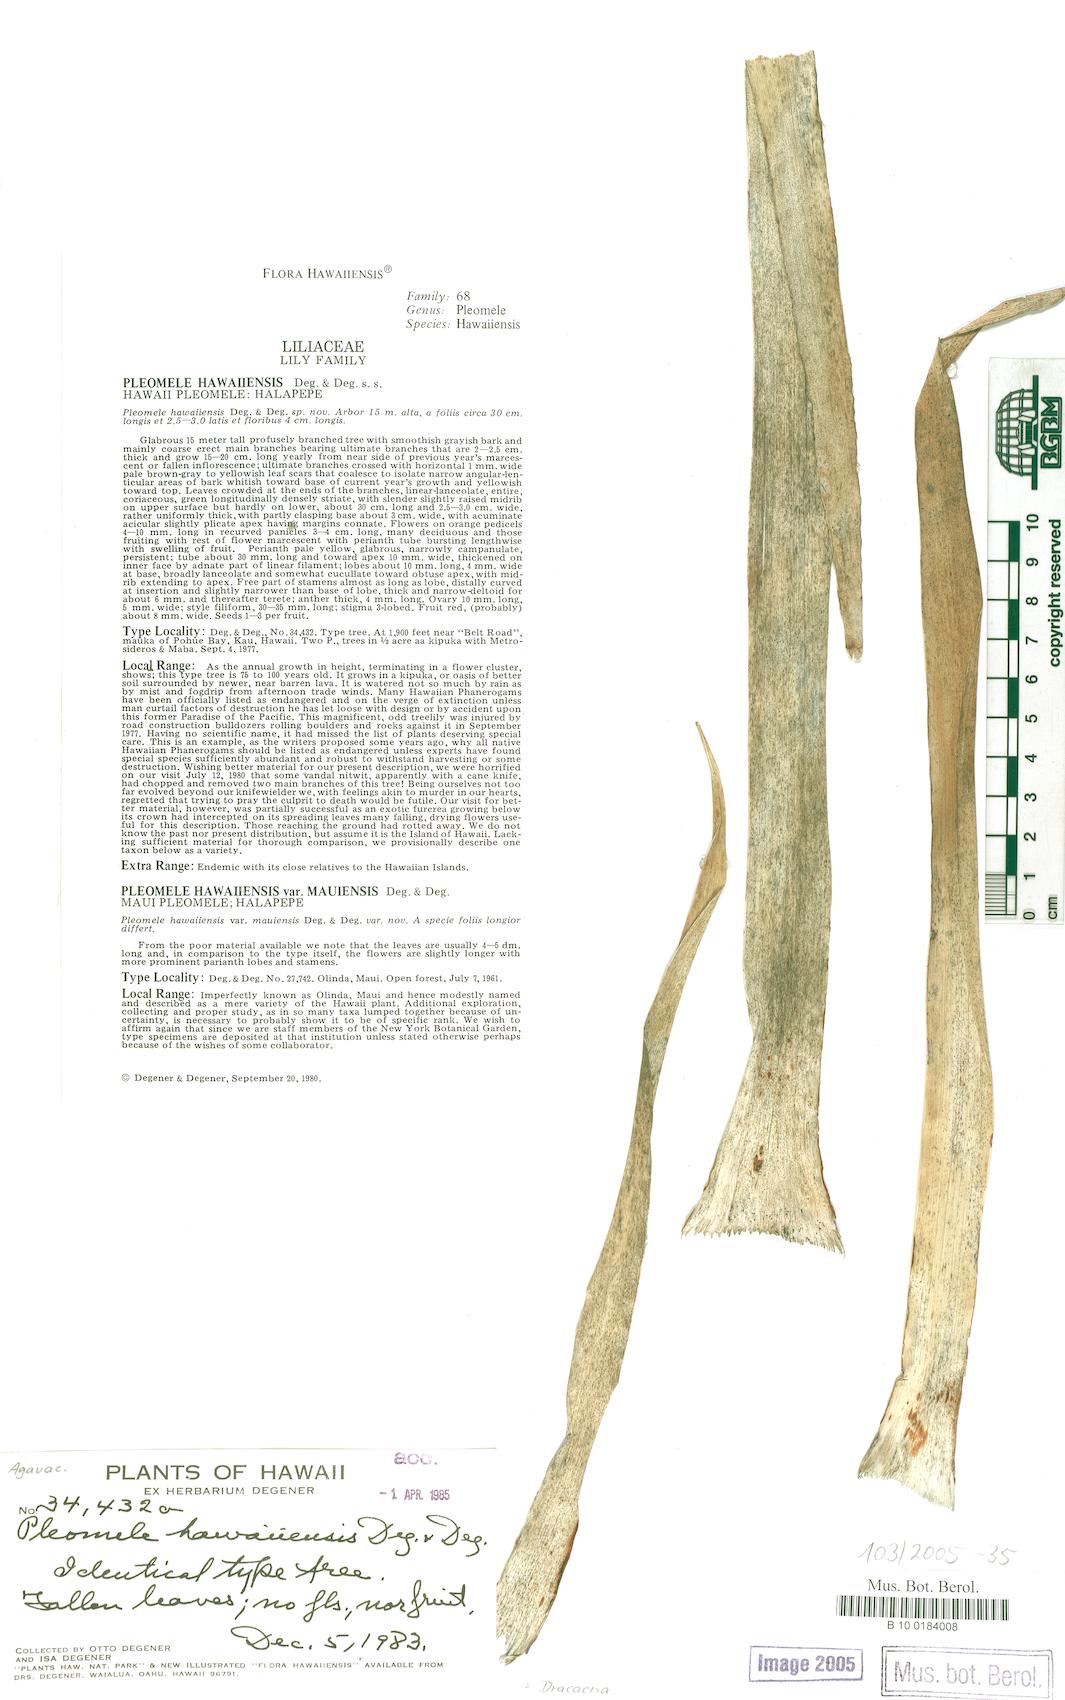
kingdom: Plantae
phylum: Tracheophyta
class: Liliopsida
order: Asparagales
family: Asparagaceae
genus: Dracaena
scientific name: Dracaena
